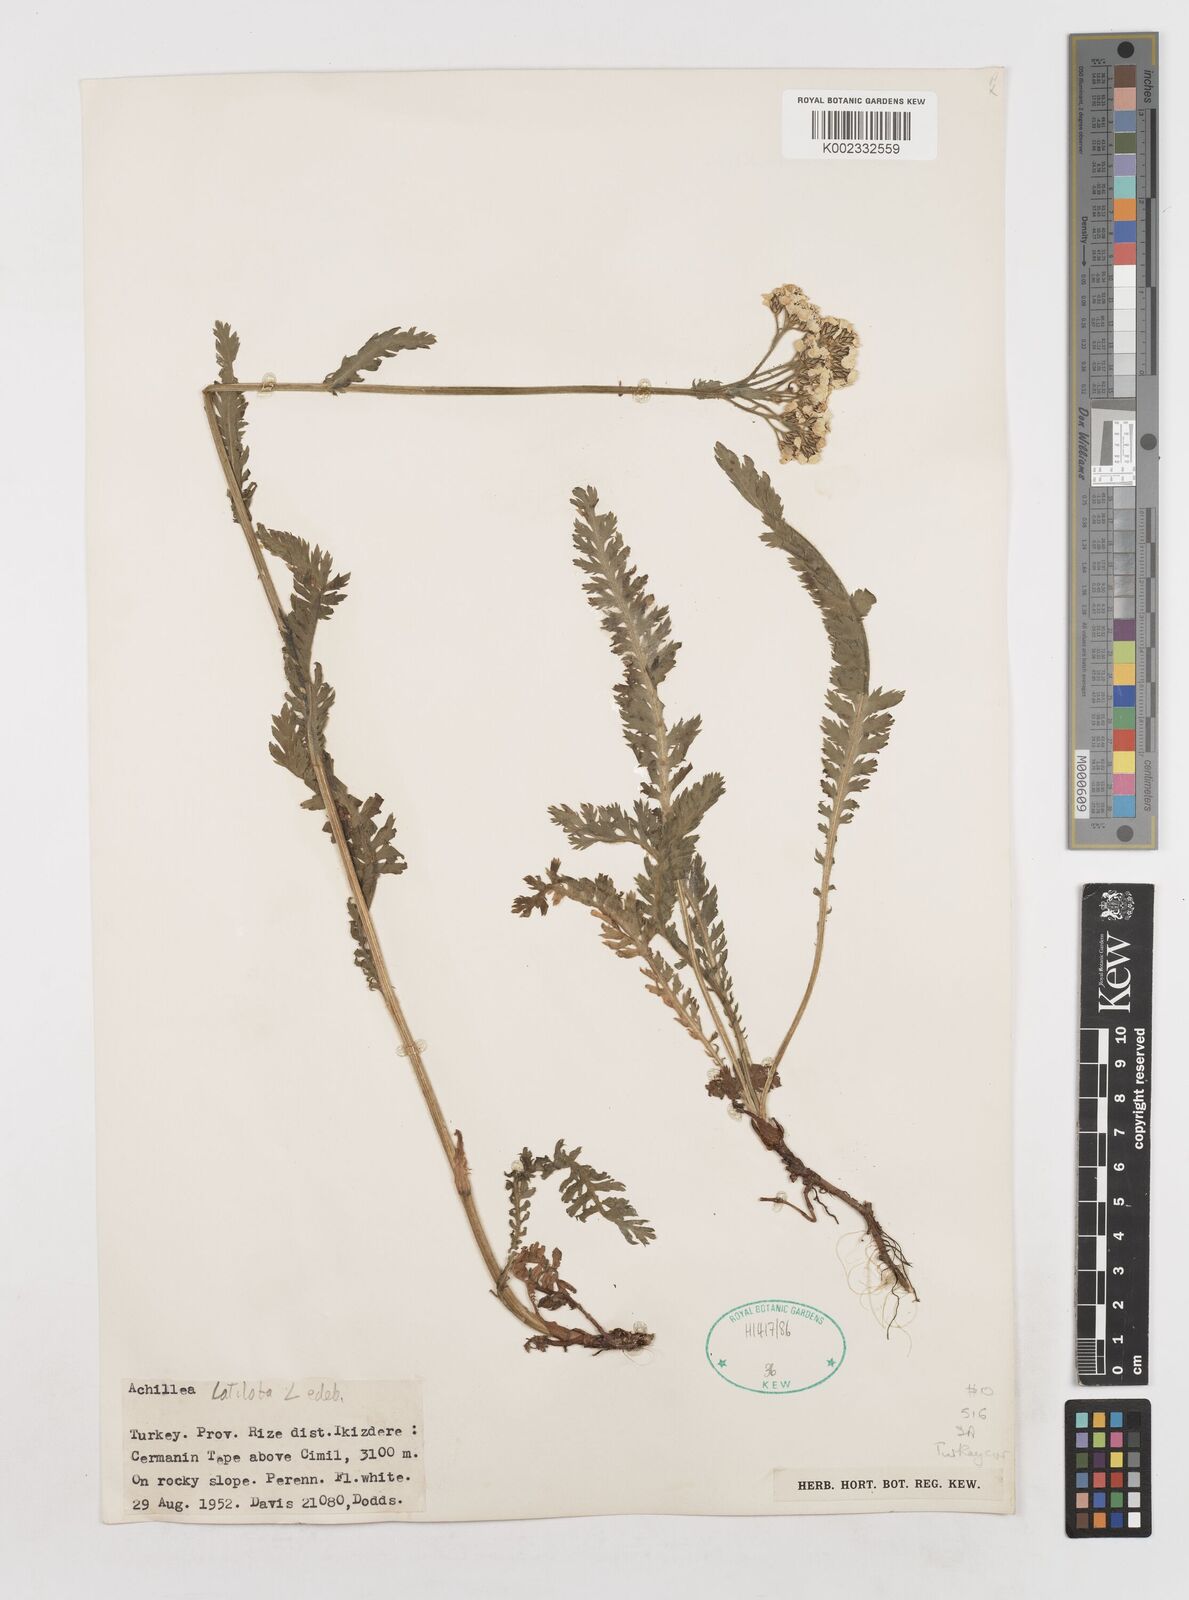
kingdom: Plantae
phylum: Tracheophyta
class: Magnoliopsida
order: Asterales
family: Asteraceae
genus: Achillea
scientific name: Achillea latiloba
